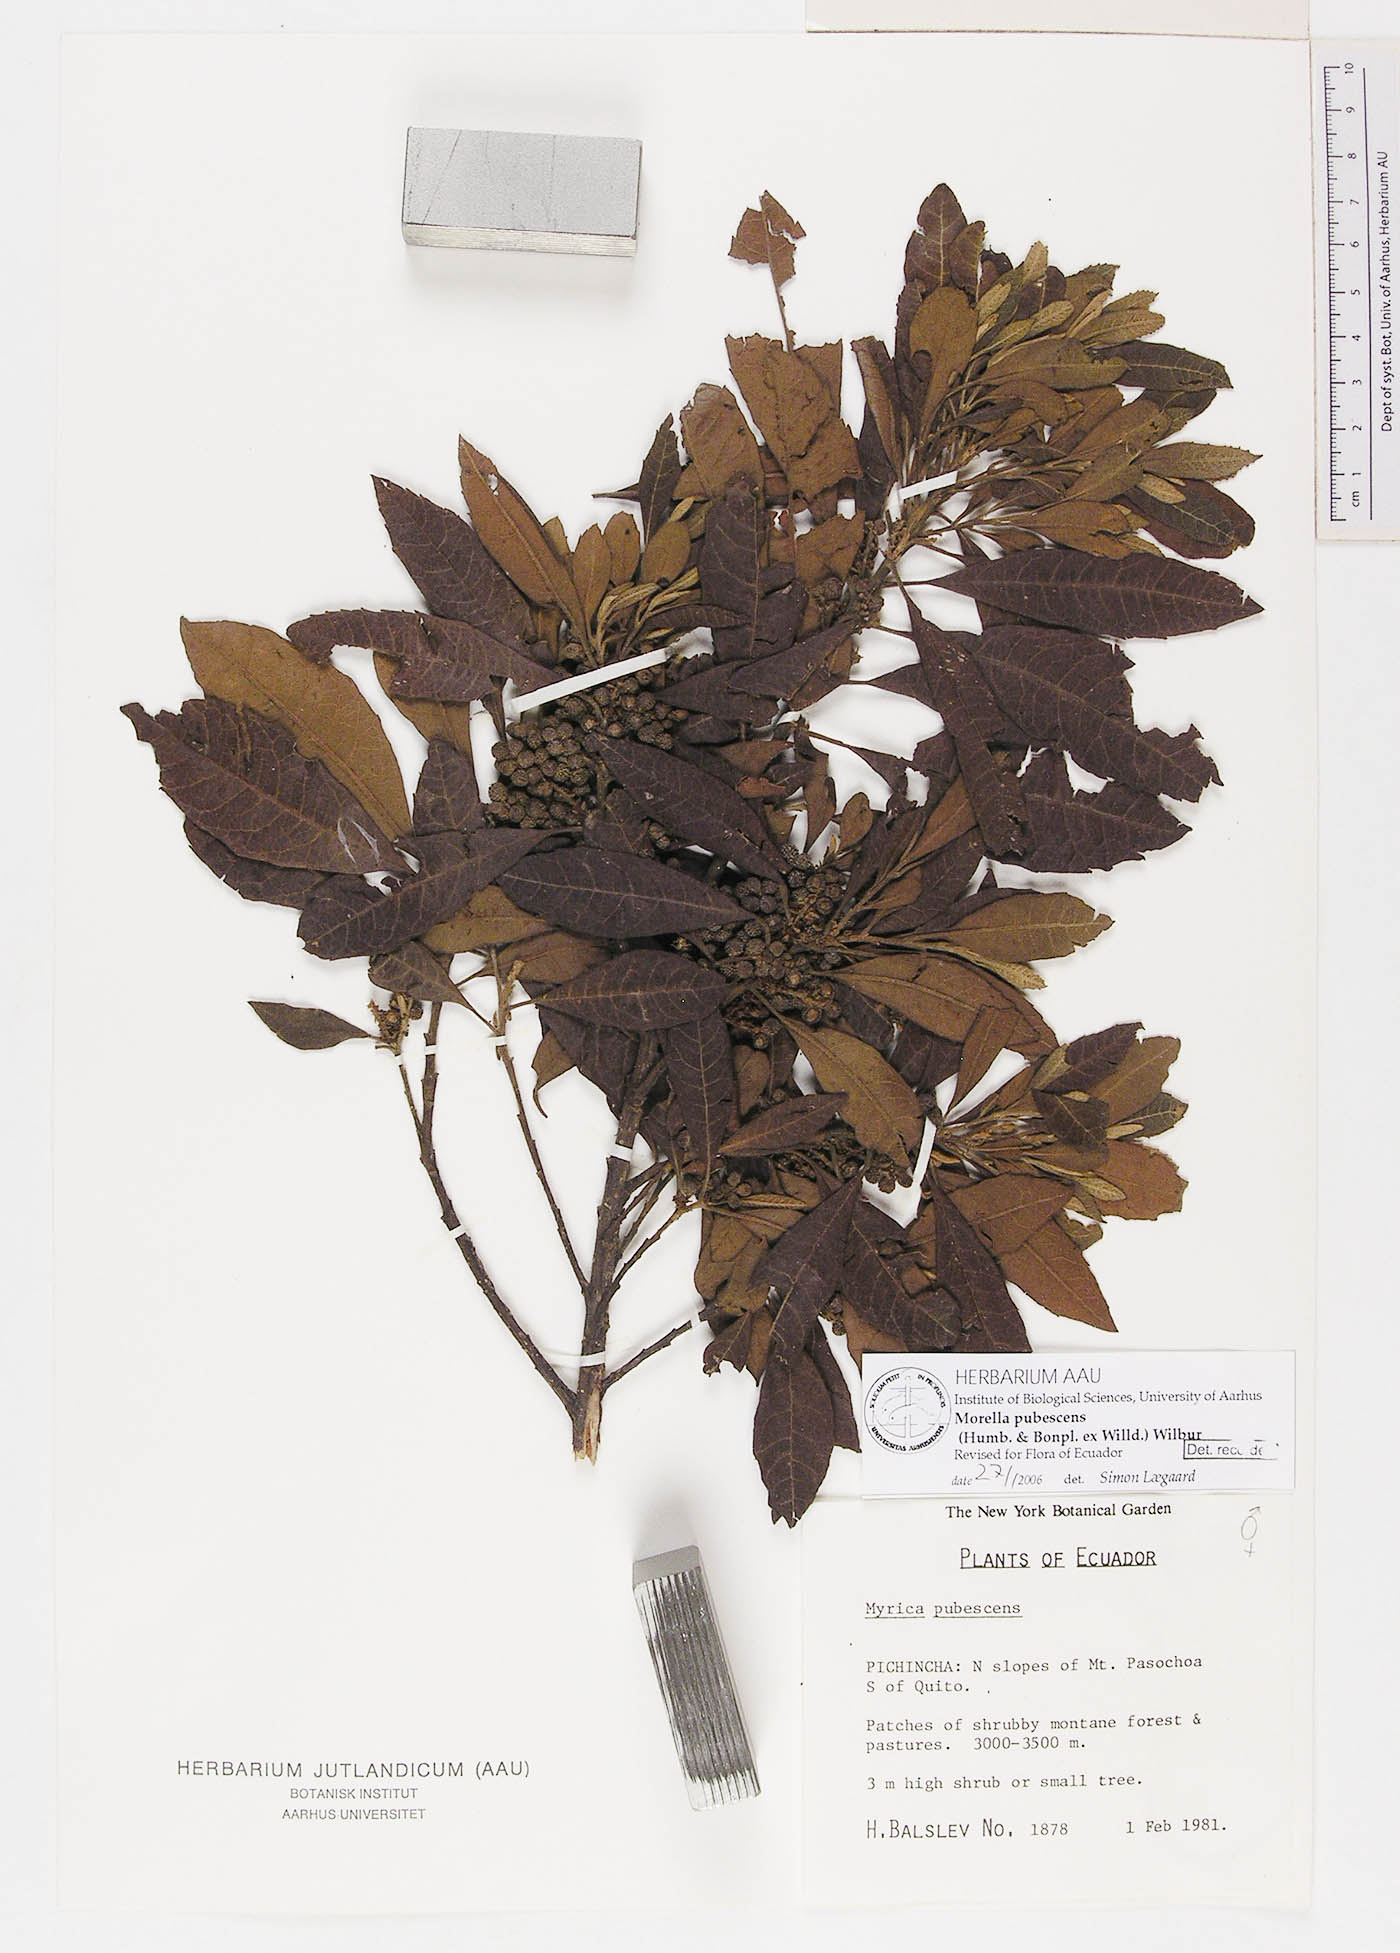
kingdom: Plantae
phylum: Tracheophyta
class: Magnoliopsida
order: Fagales
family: Myricaceae
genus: Morella
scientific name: Morella pubescens
